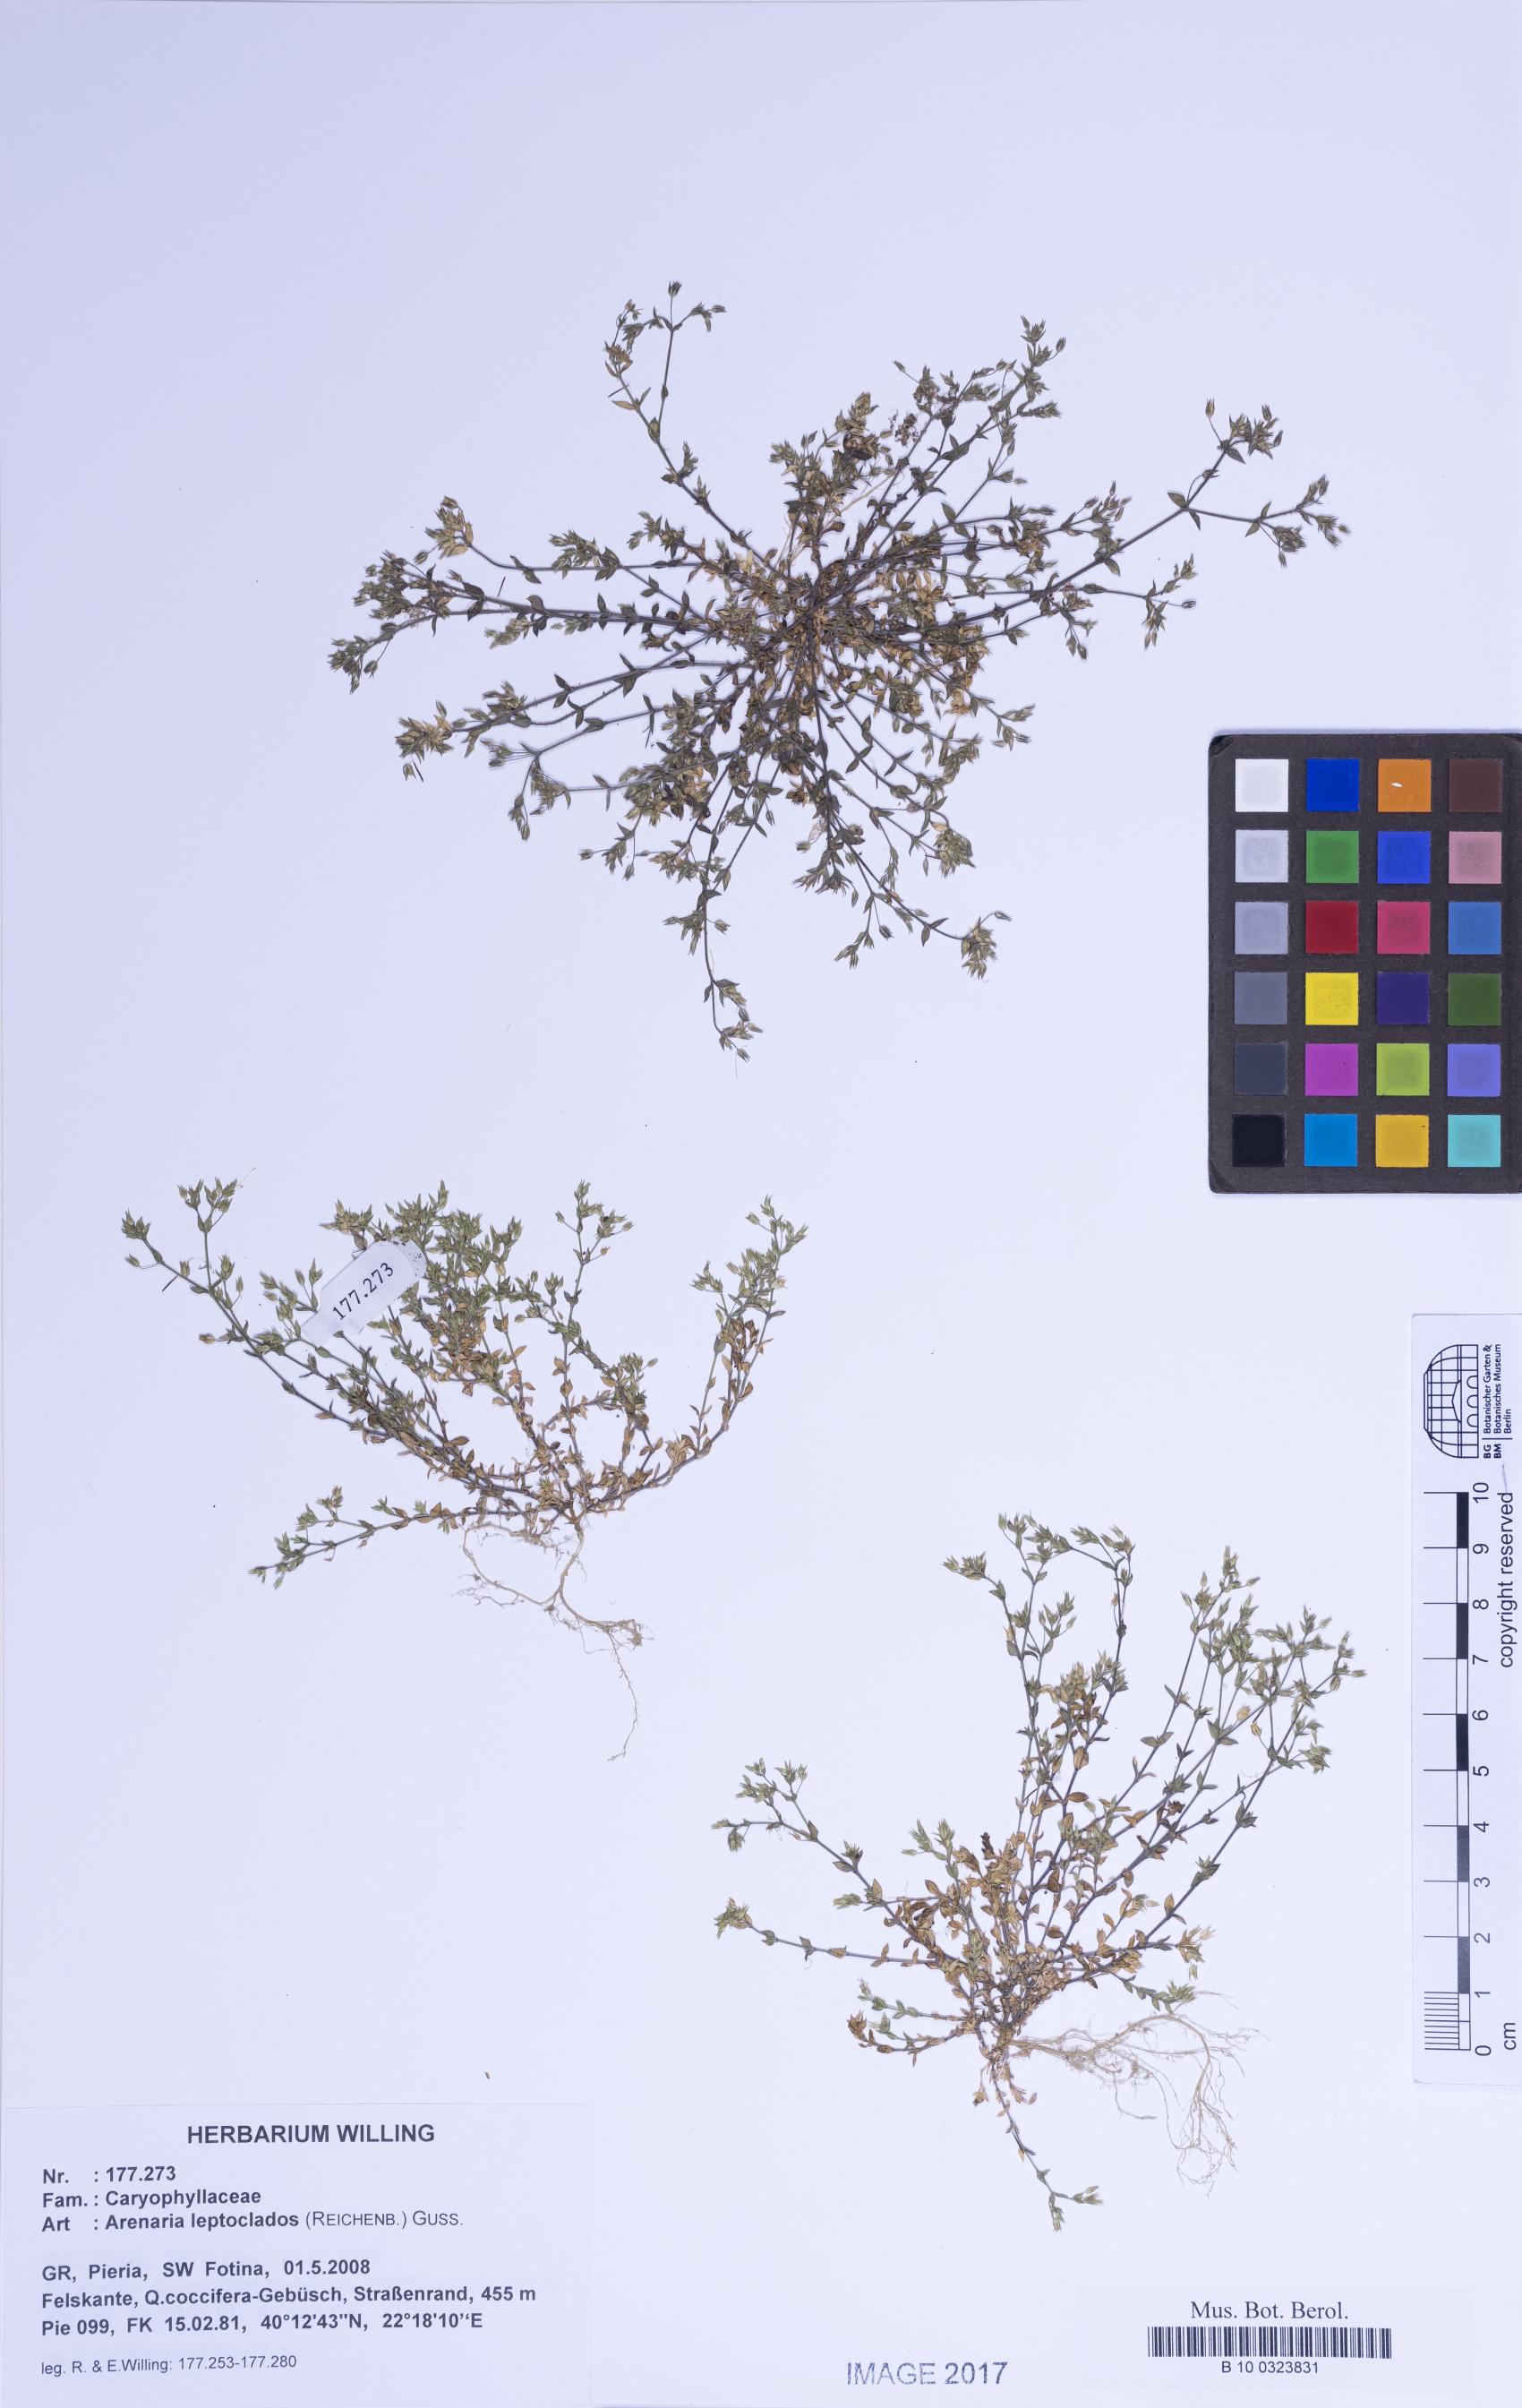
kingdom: Plantae
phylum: Tracheophyta
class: Magnoliopsida
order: Caryophyllales
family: Caryophyllaceae
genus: Arenaria
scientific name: Arenaria leptoclados
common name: Thyme-leaved sandwort
